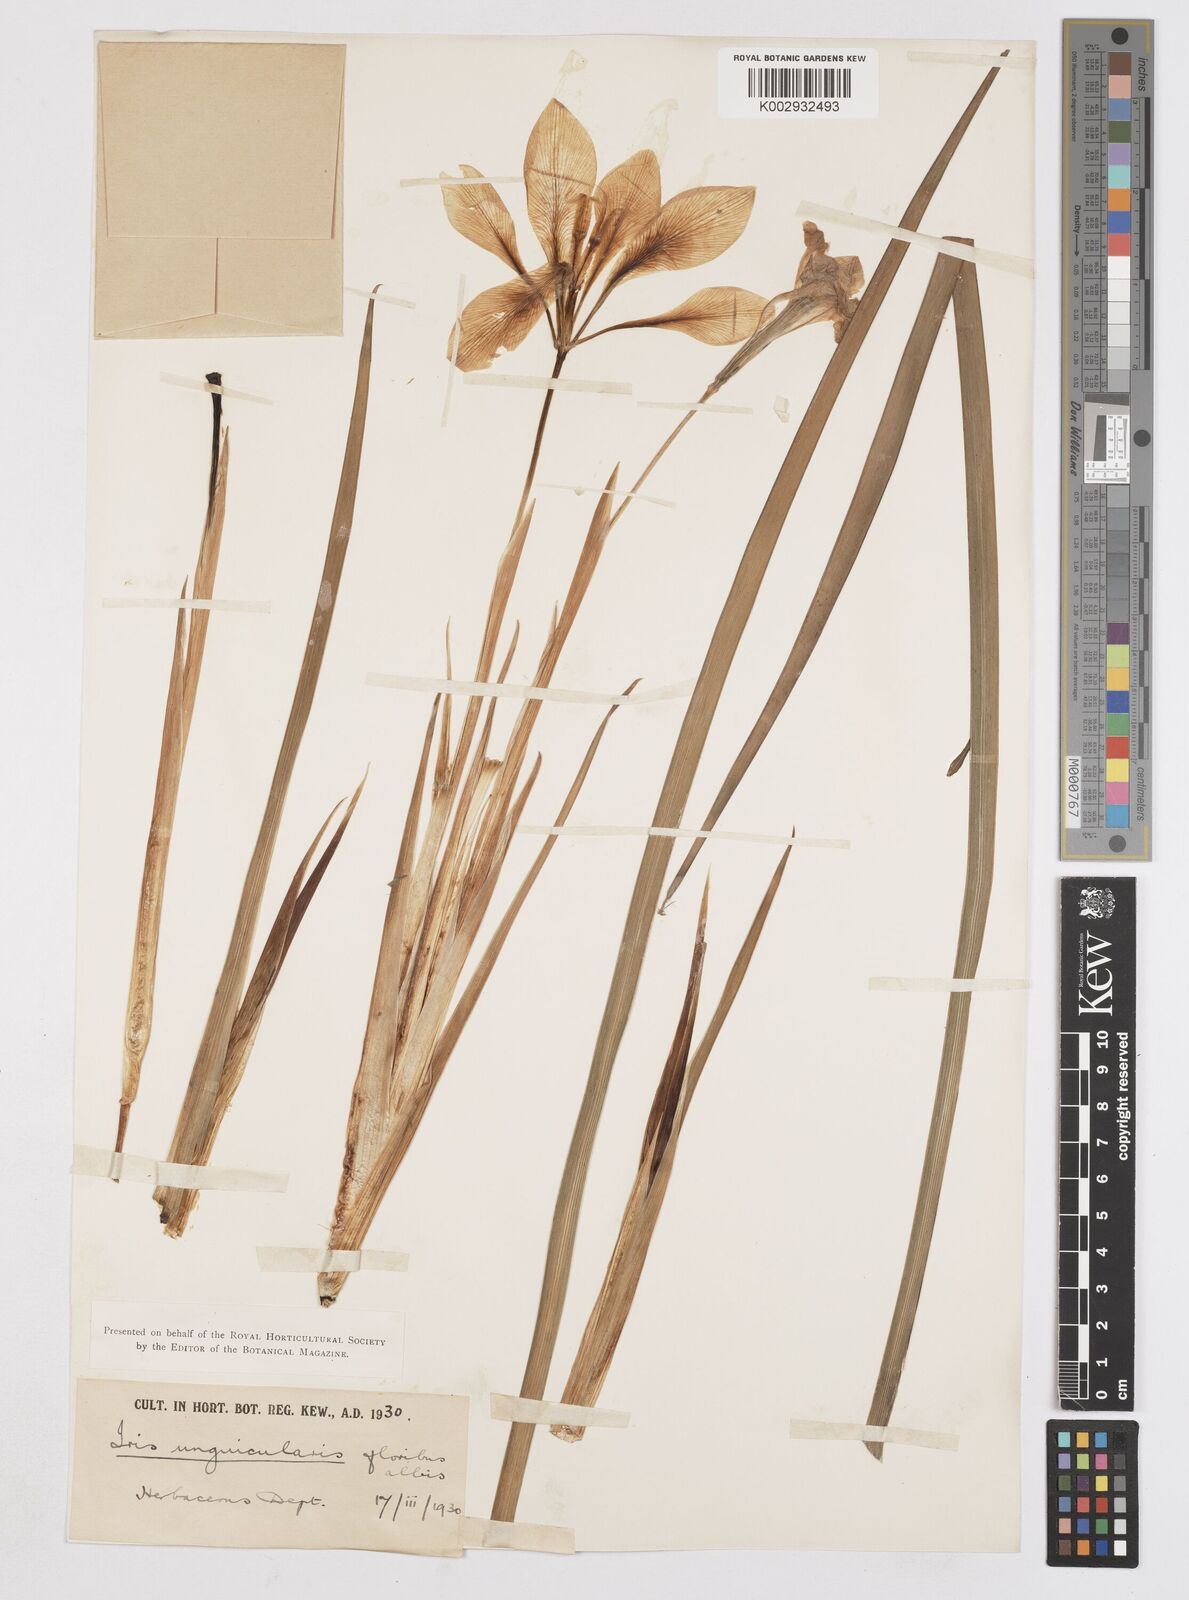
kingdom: Plantae
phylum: Tracheophyta
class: Liliopsida
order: Asparagales
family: Iridaceae
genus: Iris
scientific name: Iris unguicularis
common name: Algerian iris
